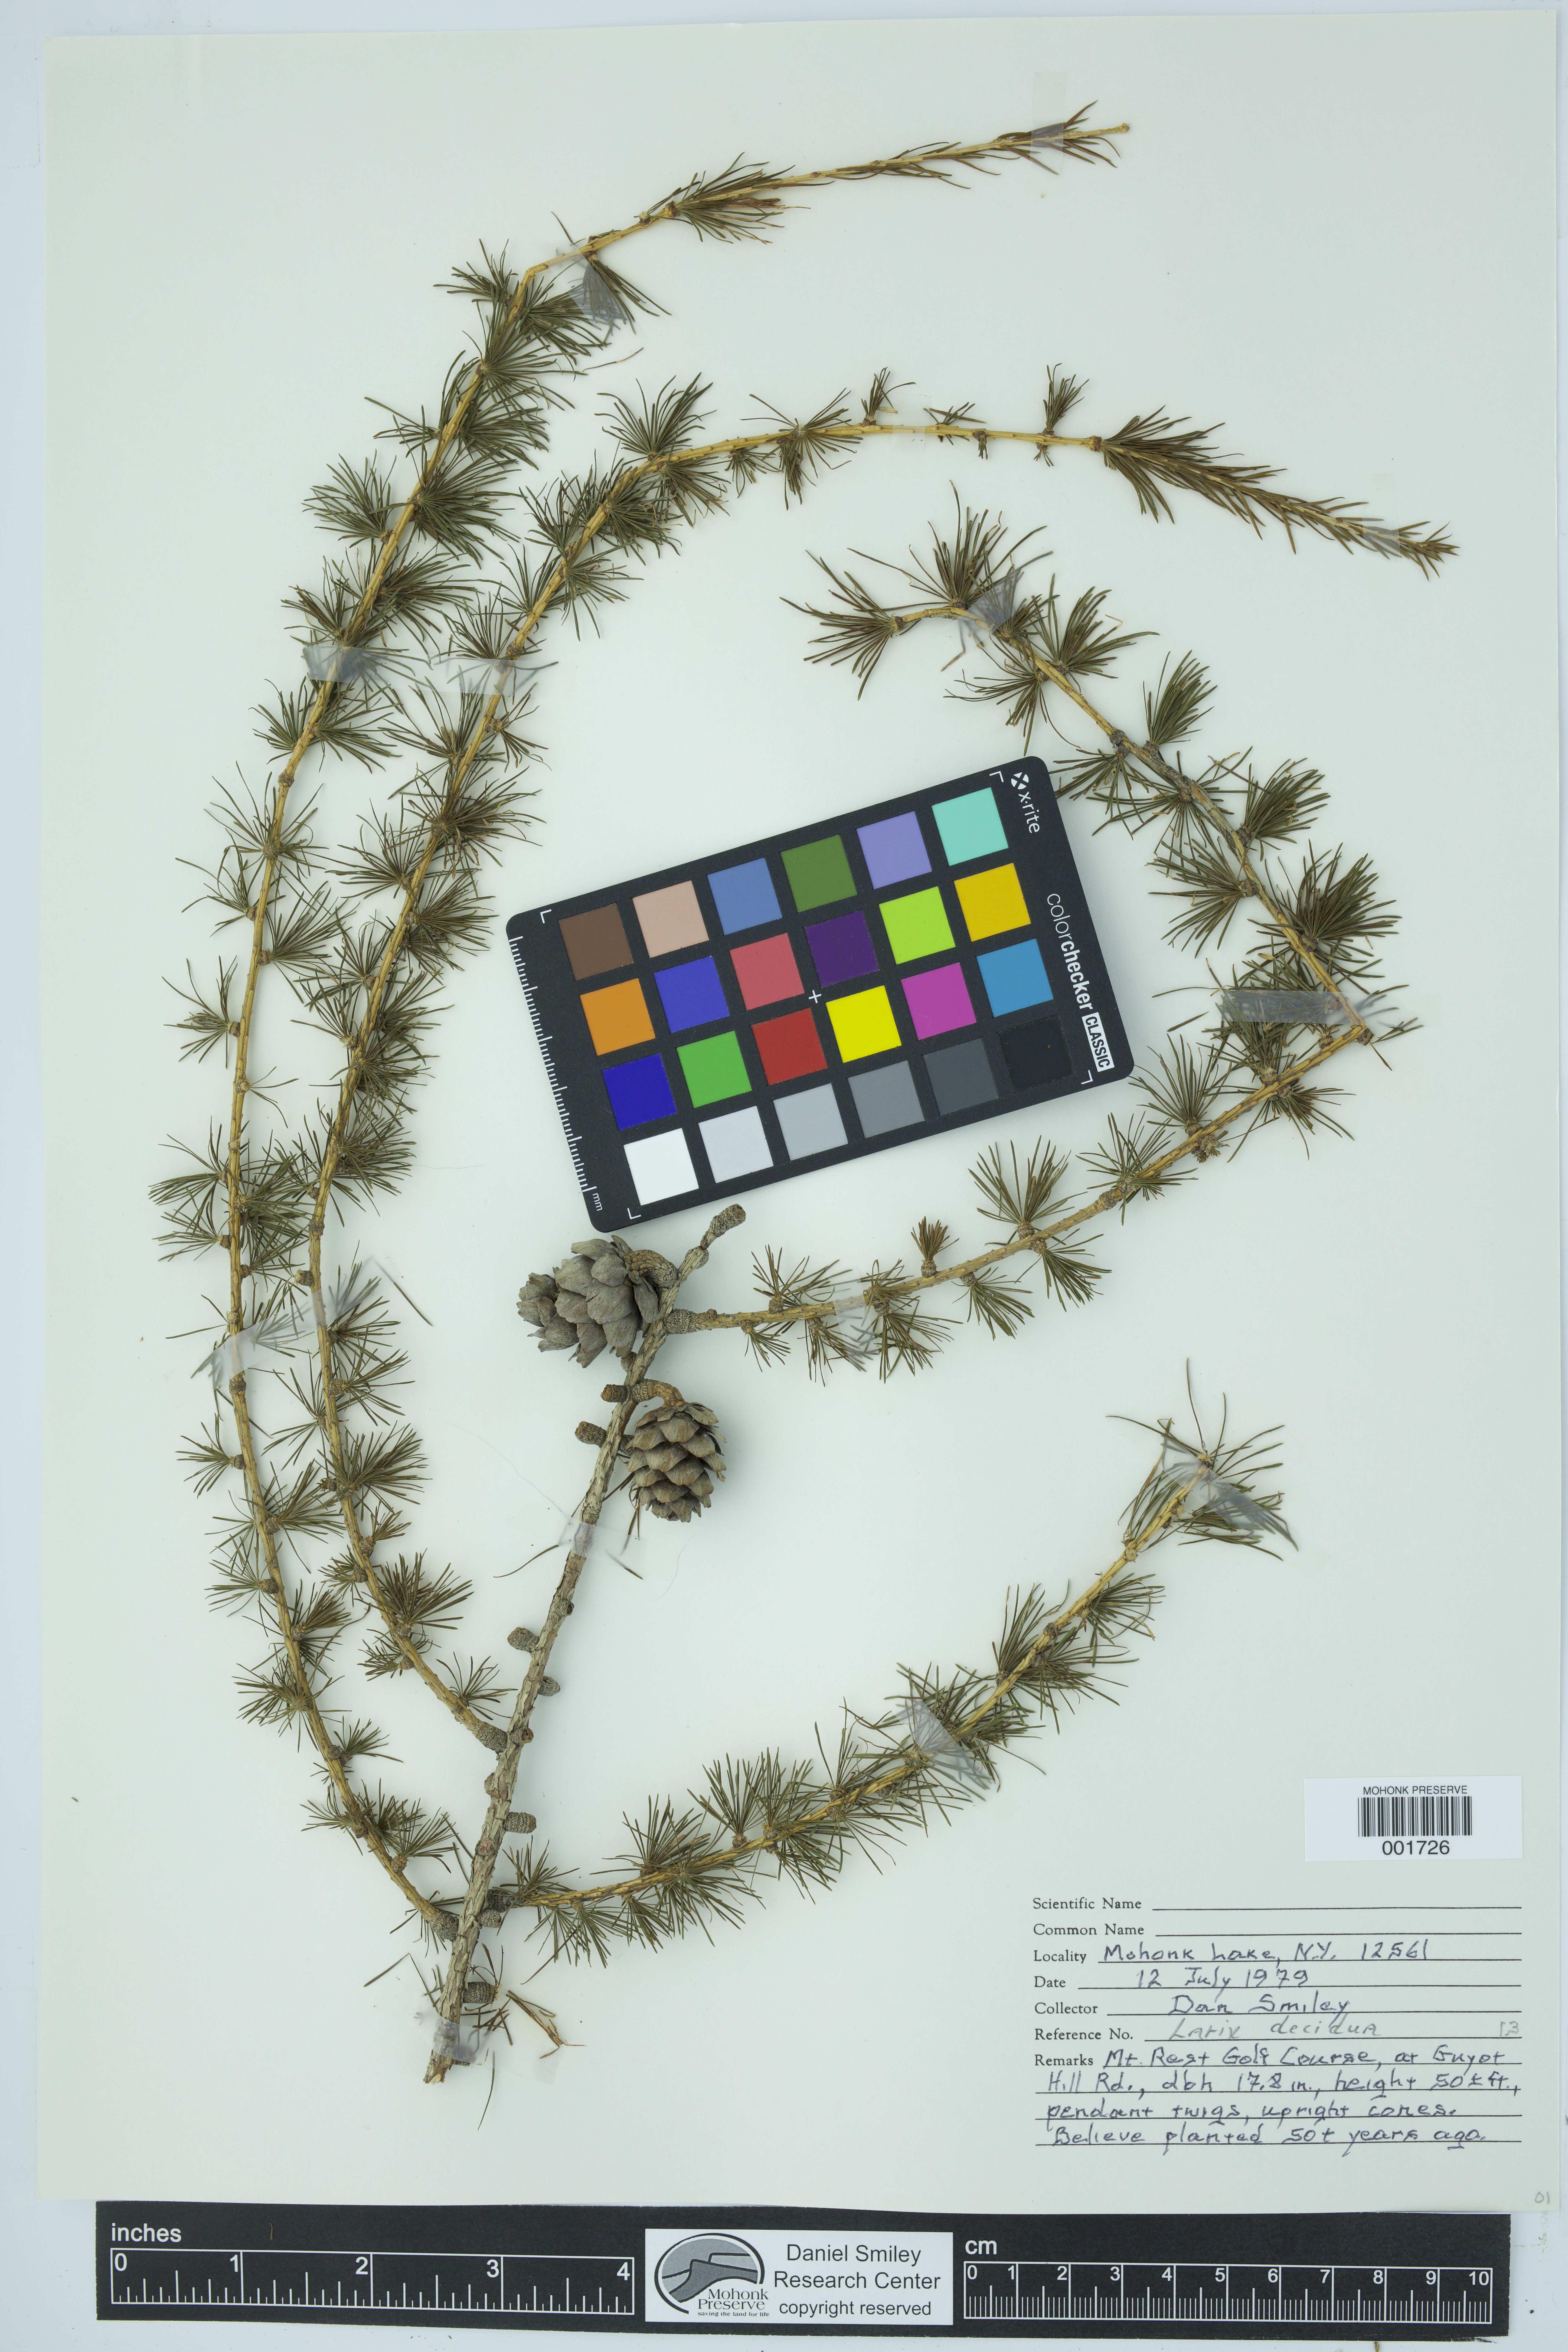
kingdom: Plantae
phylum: Tracheophyta
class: Pinopsida
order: Pinales
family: Pinaceae
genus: Larix
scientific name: Larix decidua
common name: European larch
